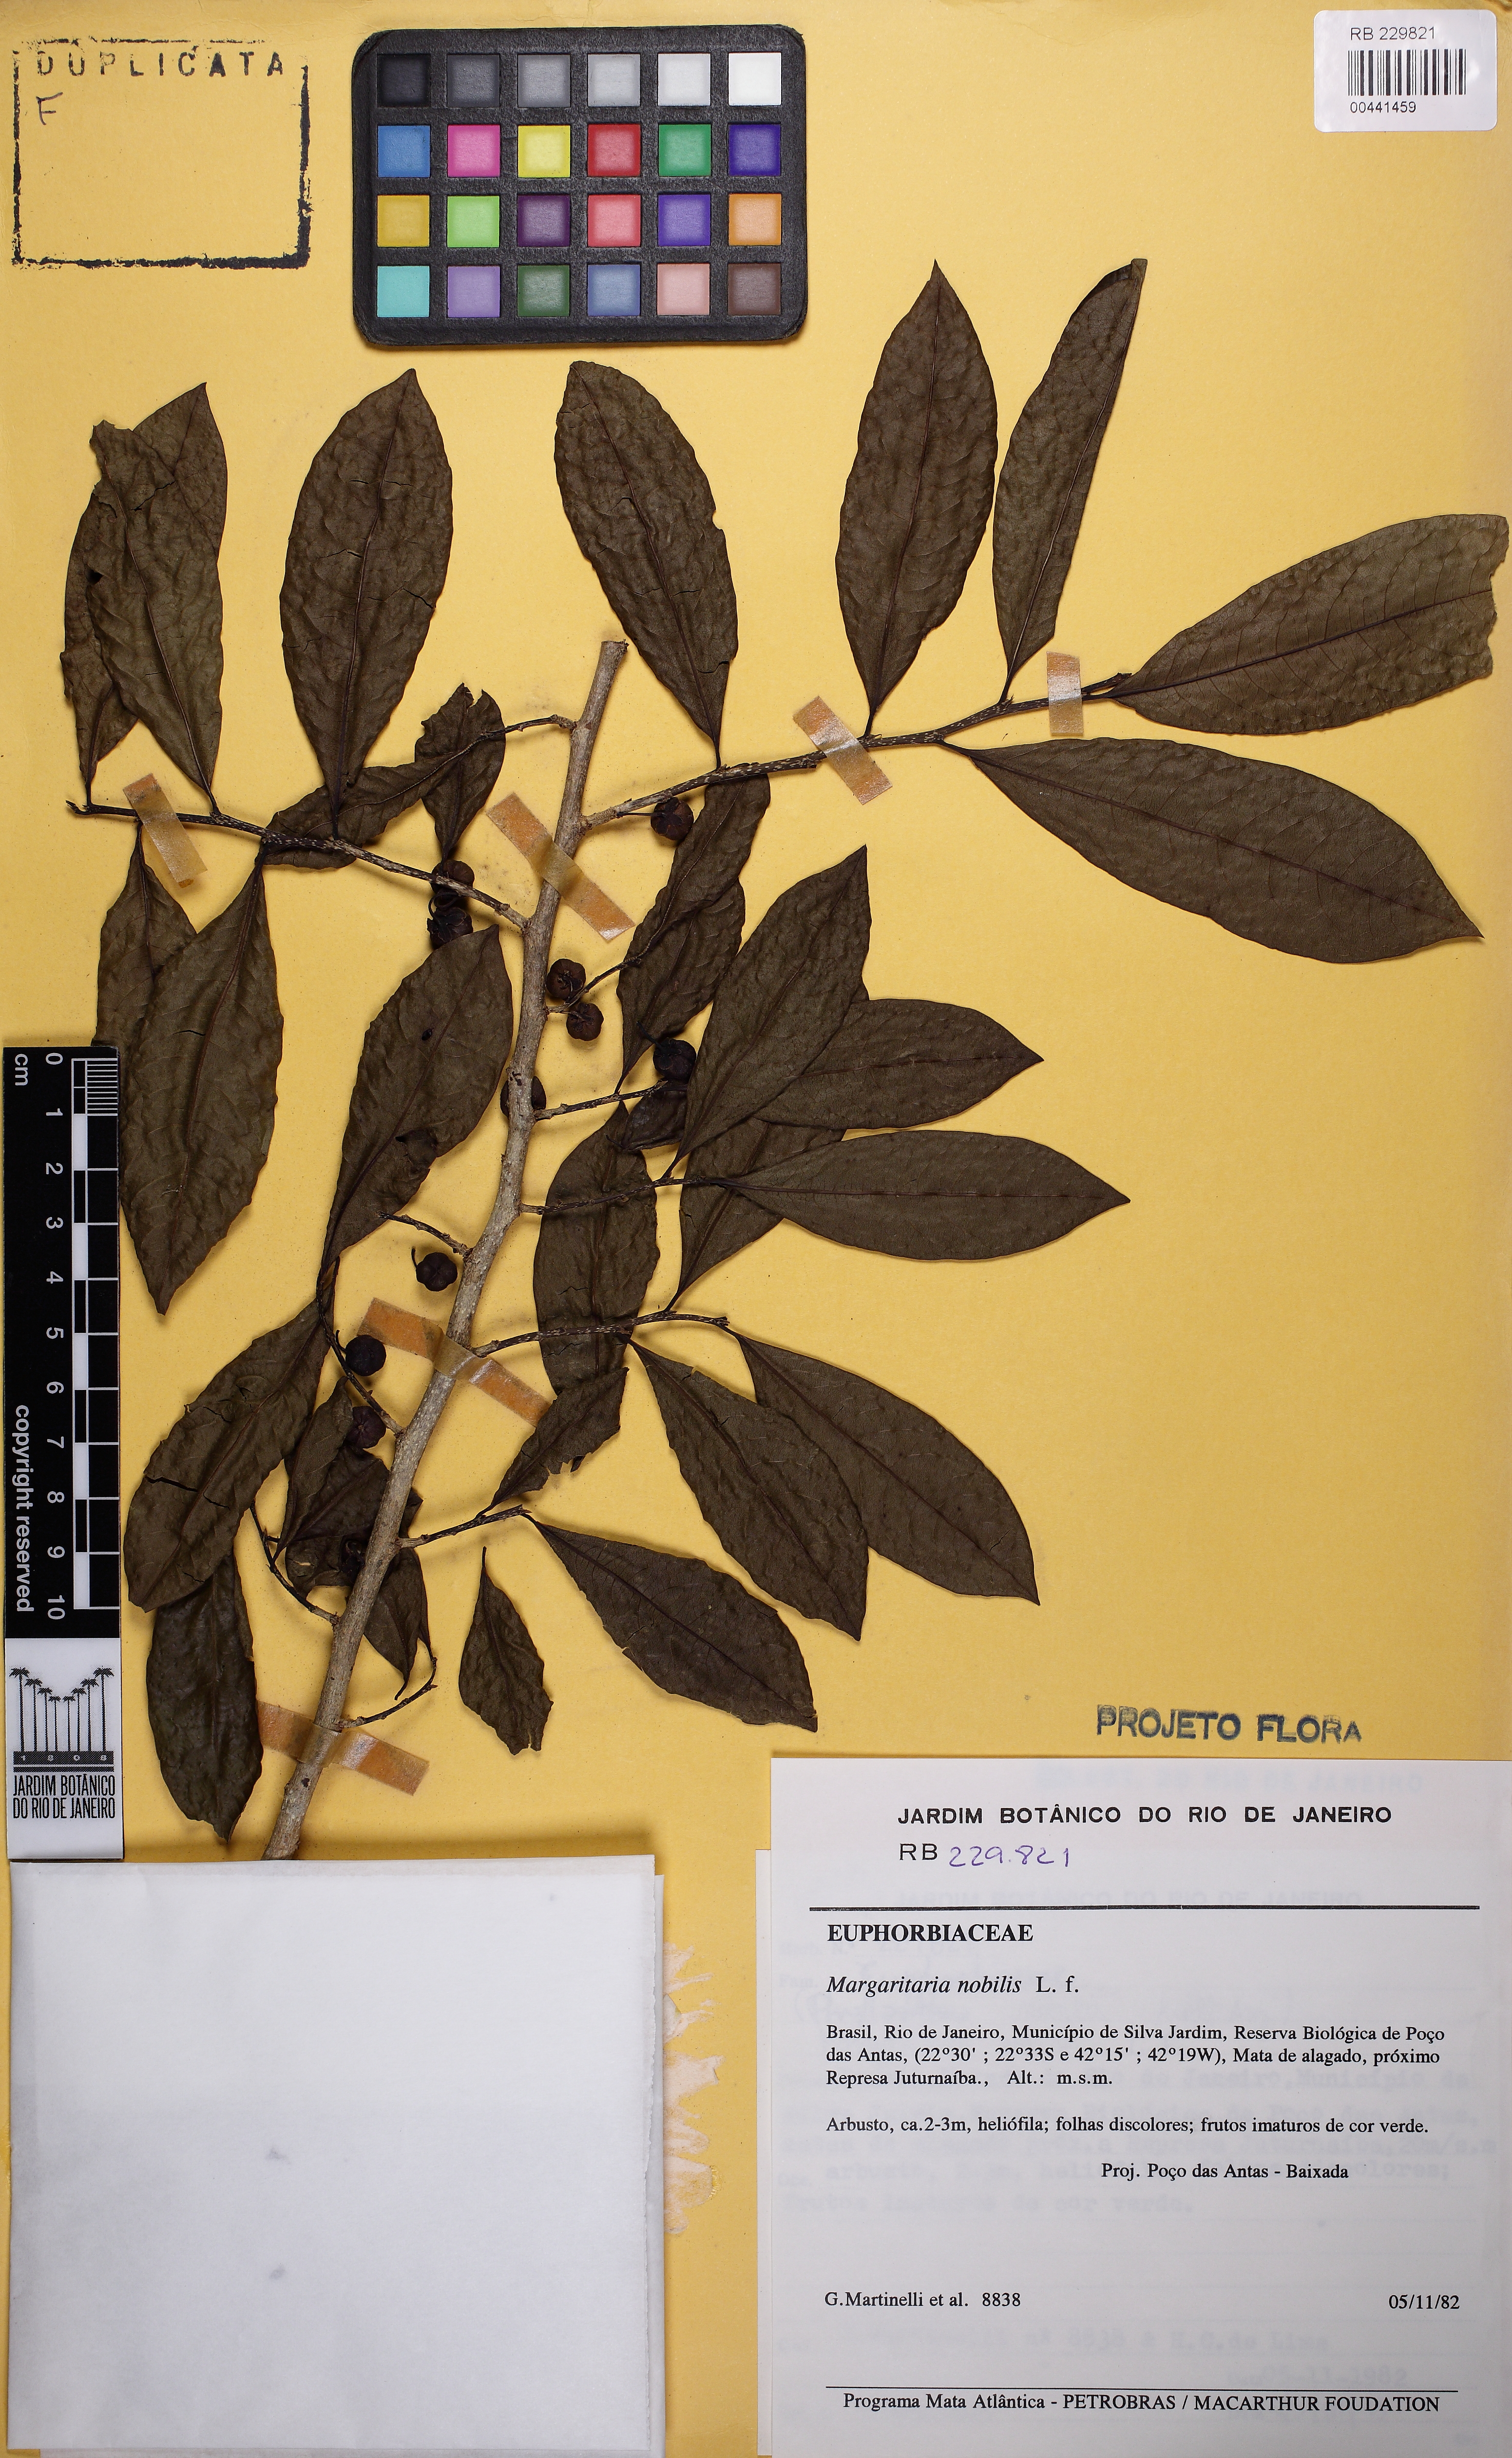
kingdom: Plantae
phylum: Tracheophyta
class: Magnoliopsida
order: Malpighiales
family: Phyllanthaceae
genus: Margaritaria
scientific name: Margaritaria nobilis
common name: Goose berry
